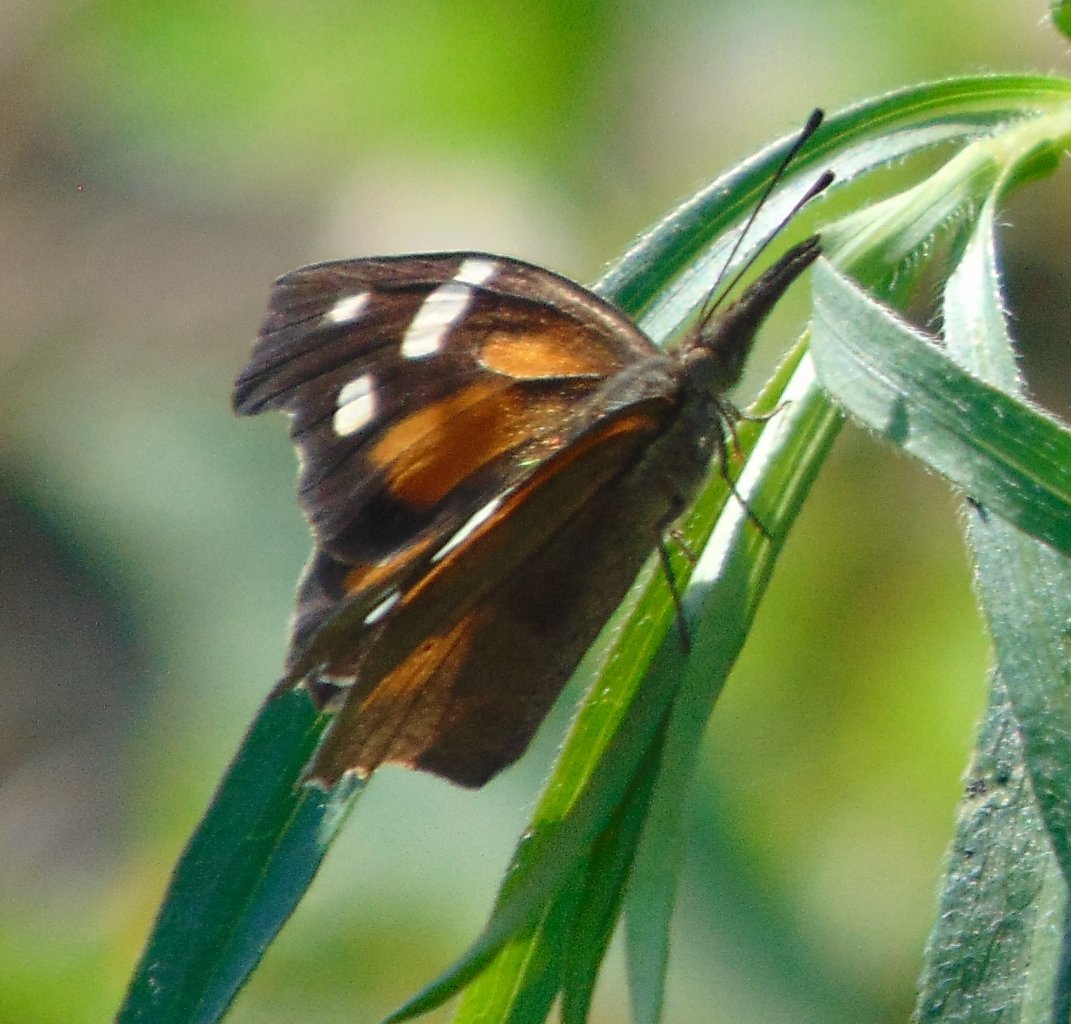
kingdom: Animalia
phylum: Arthropoda
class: Insecta
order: Lepidoptera
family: Nymphalidae
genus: Libytheana
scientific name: Libytheana carinenta
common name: American Snout
